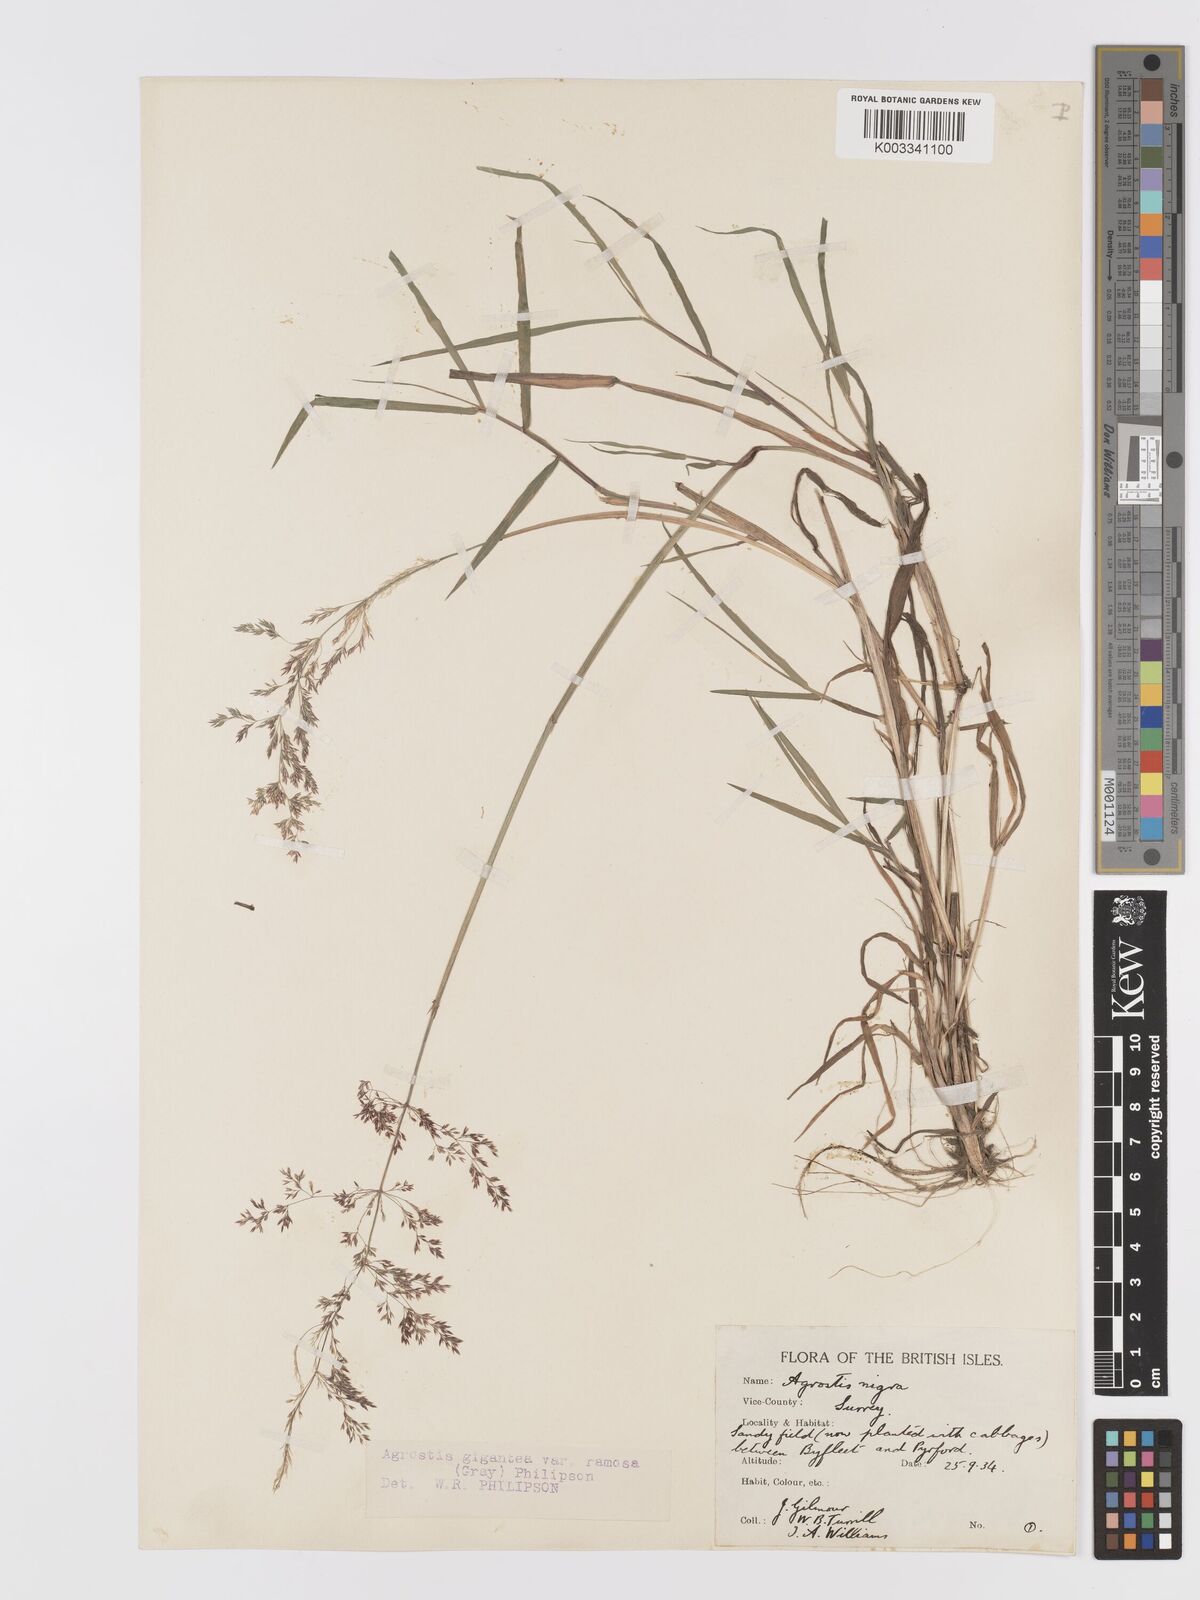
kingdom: Plantae
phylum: Tracheophyta
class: Liliopsida
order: Poales
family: Poaceae
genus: Agrostis
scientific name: Agrostis gigantea
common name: Black bent
